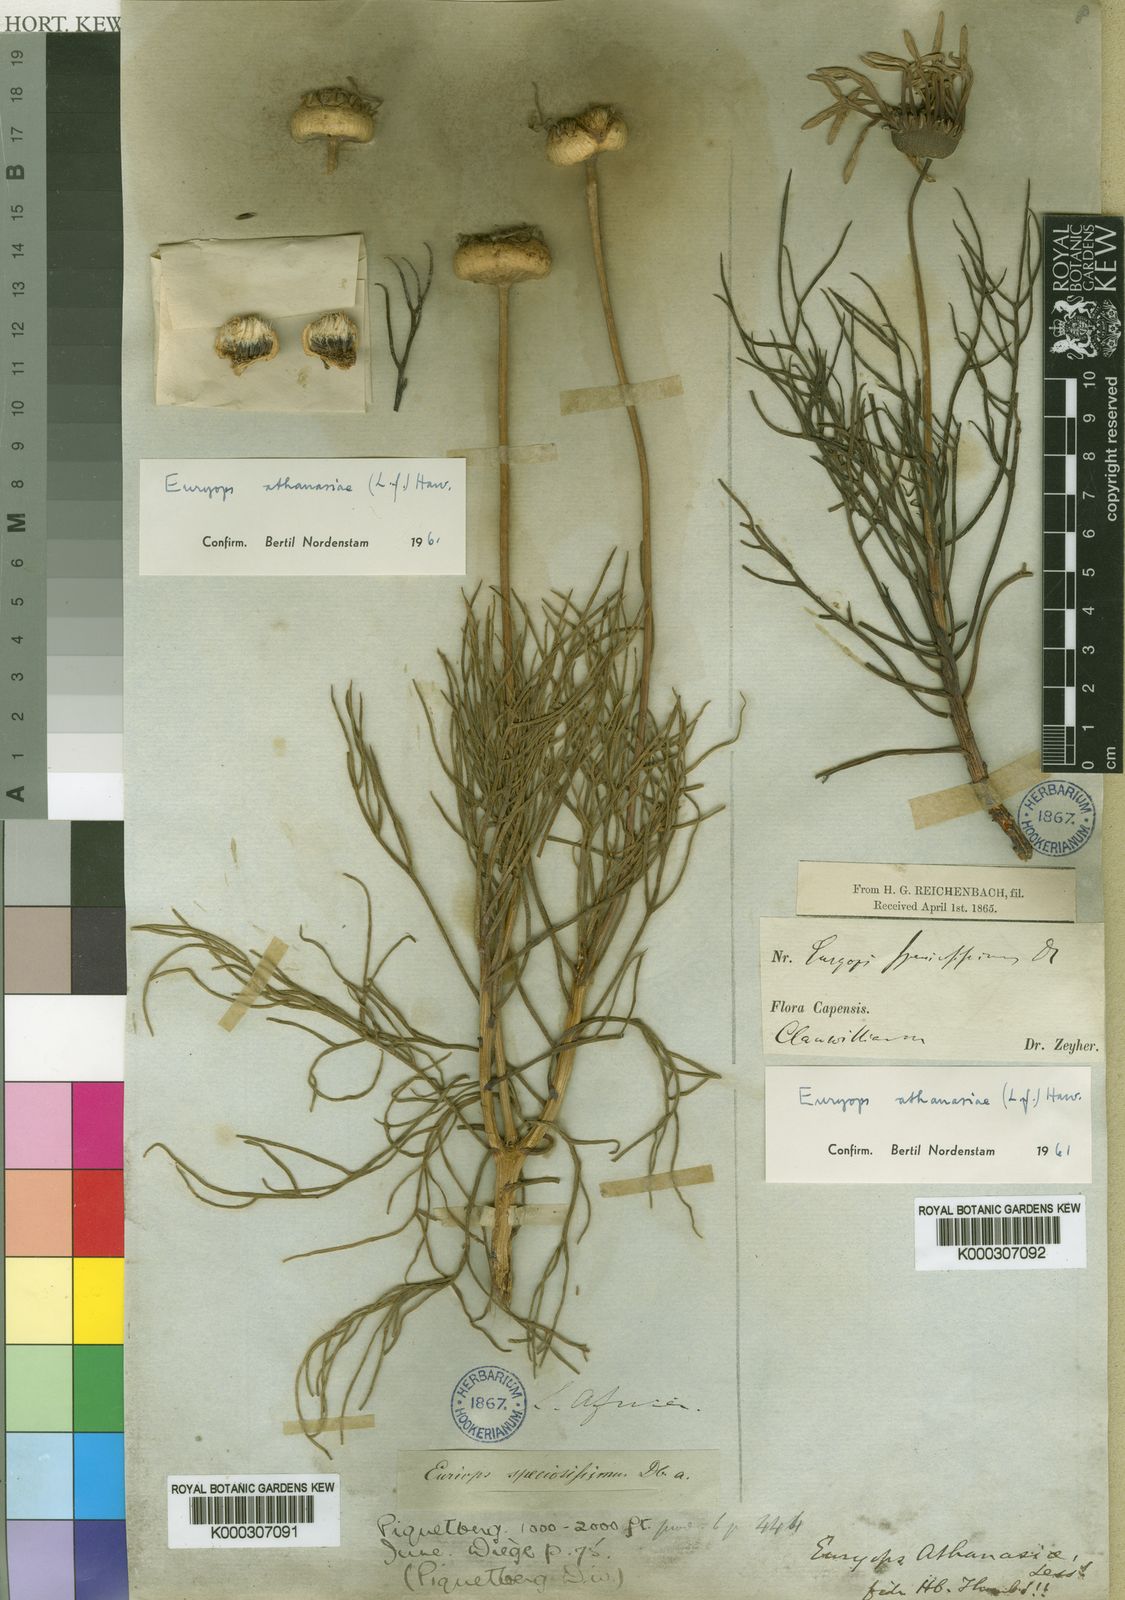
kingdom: Plantae
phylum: Tracheophyta
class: Magnoliopsida
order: Asterales
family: Asteraceae
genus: Euryops
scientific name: Euryops abrotanifolius
